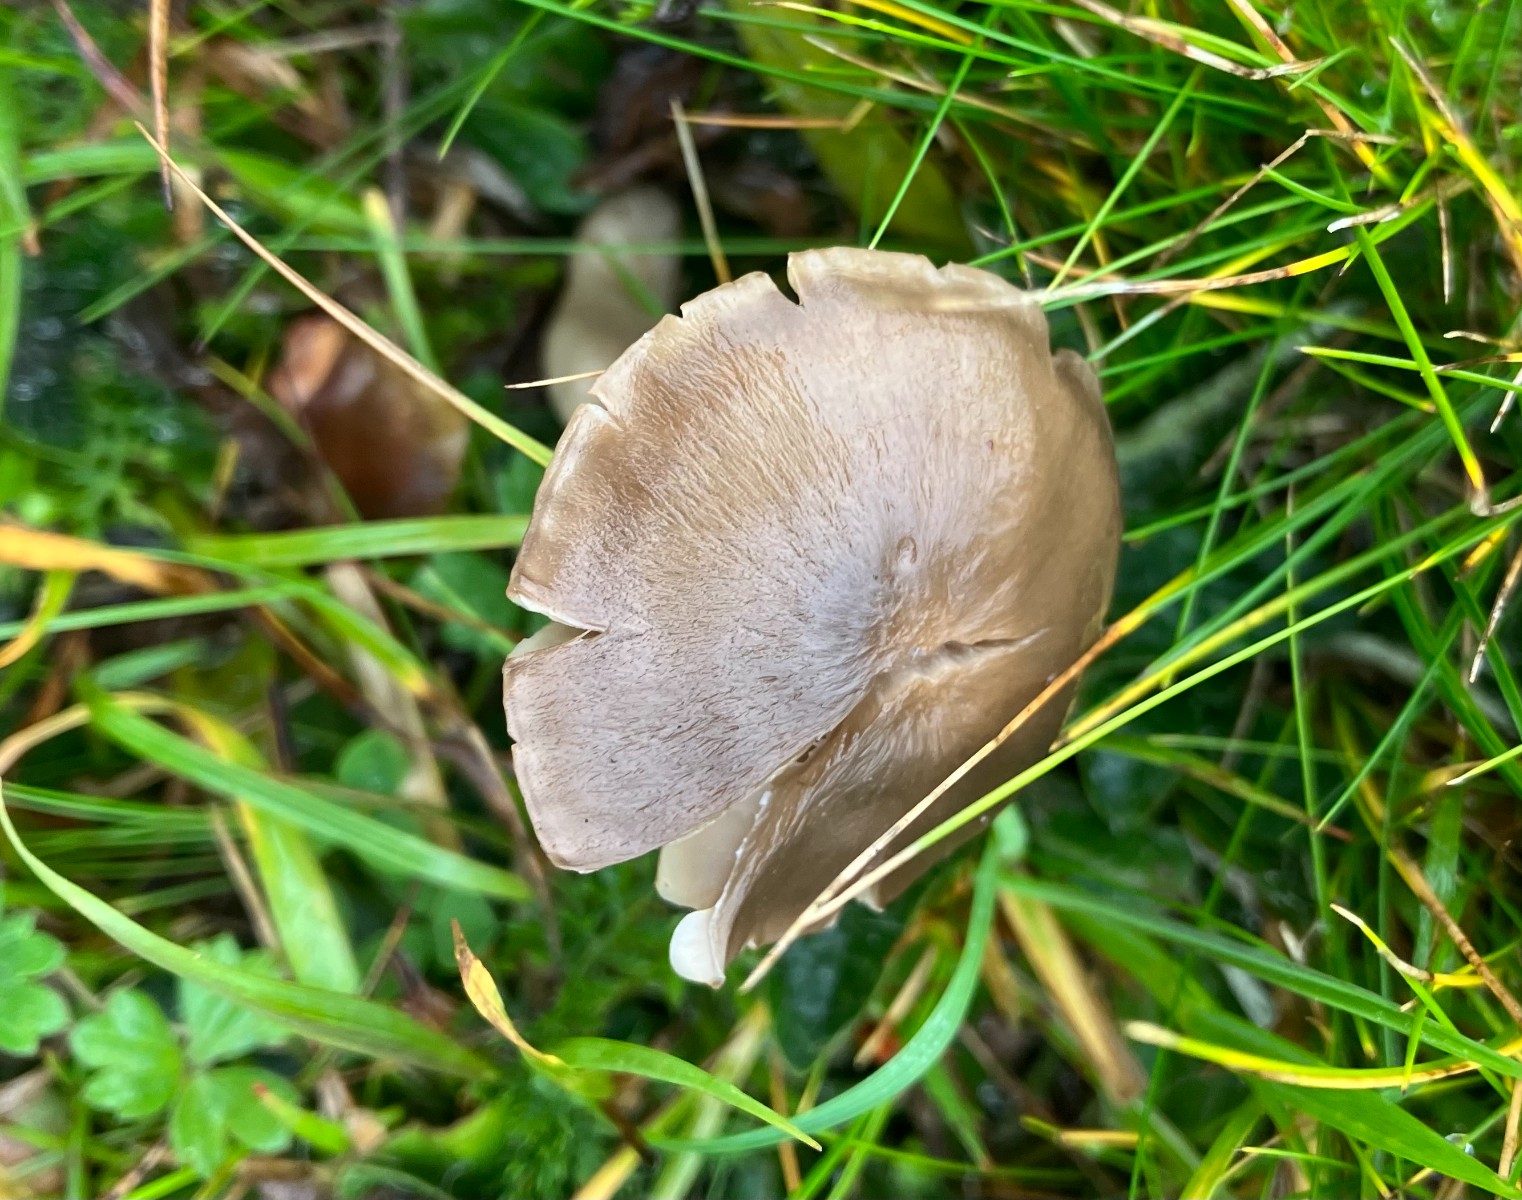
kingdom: Fungi
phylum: Basidiomycota
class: Agaricomycetes
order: Agaricales
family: Hygrophoraceae
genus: Neohygrocybe
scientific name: Neohygrocybe nitrata
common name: stinkende vokshat
